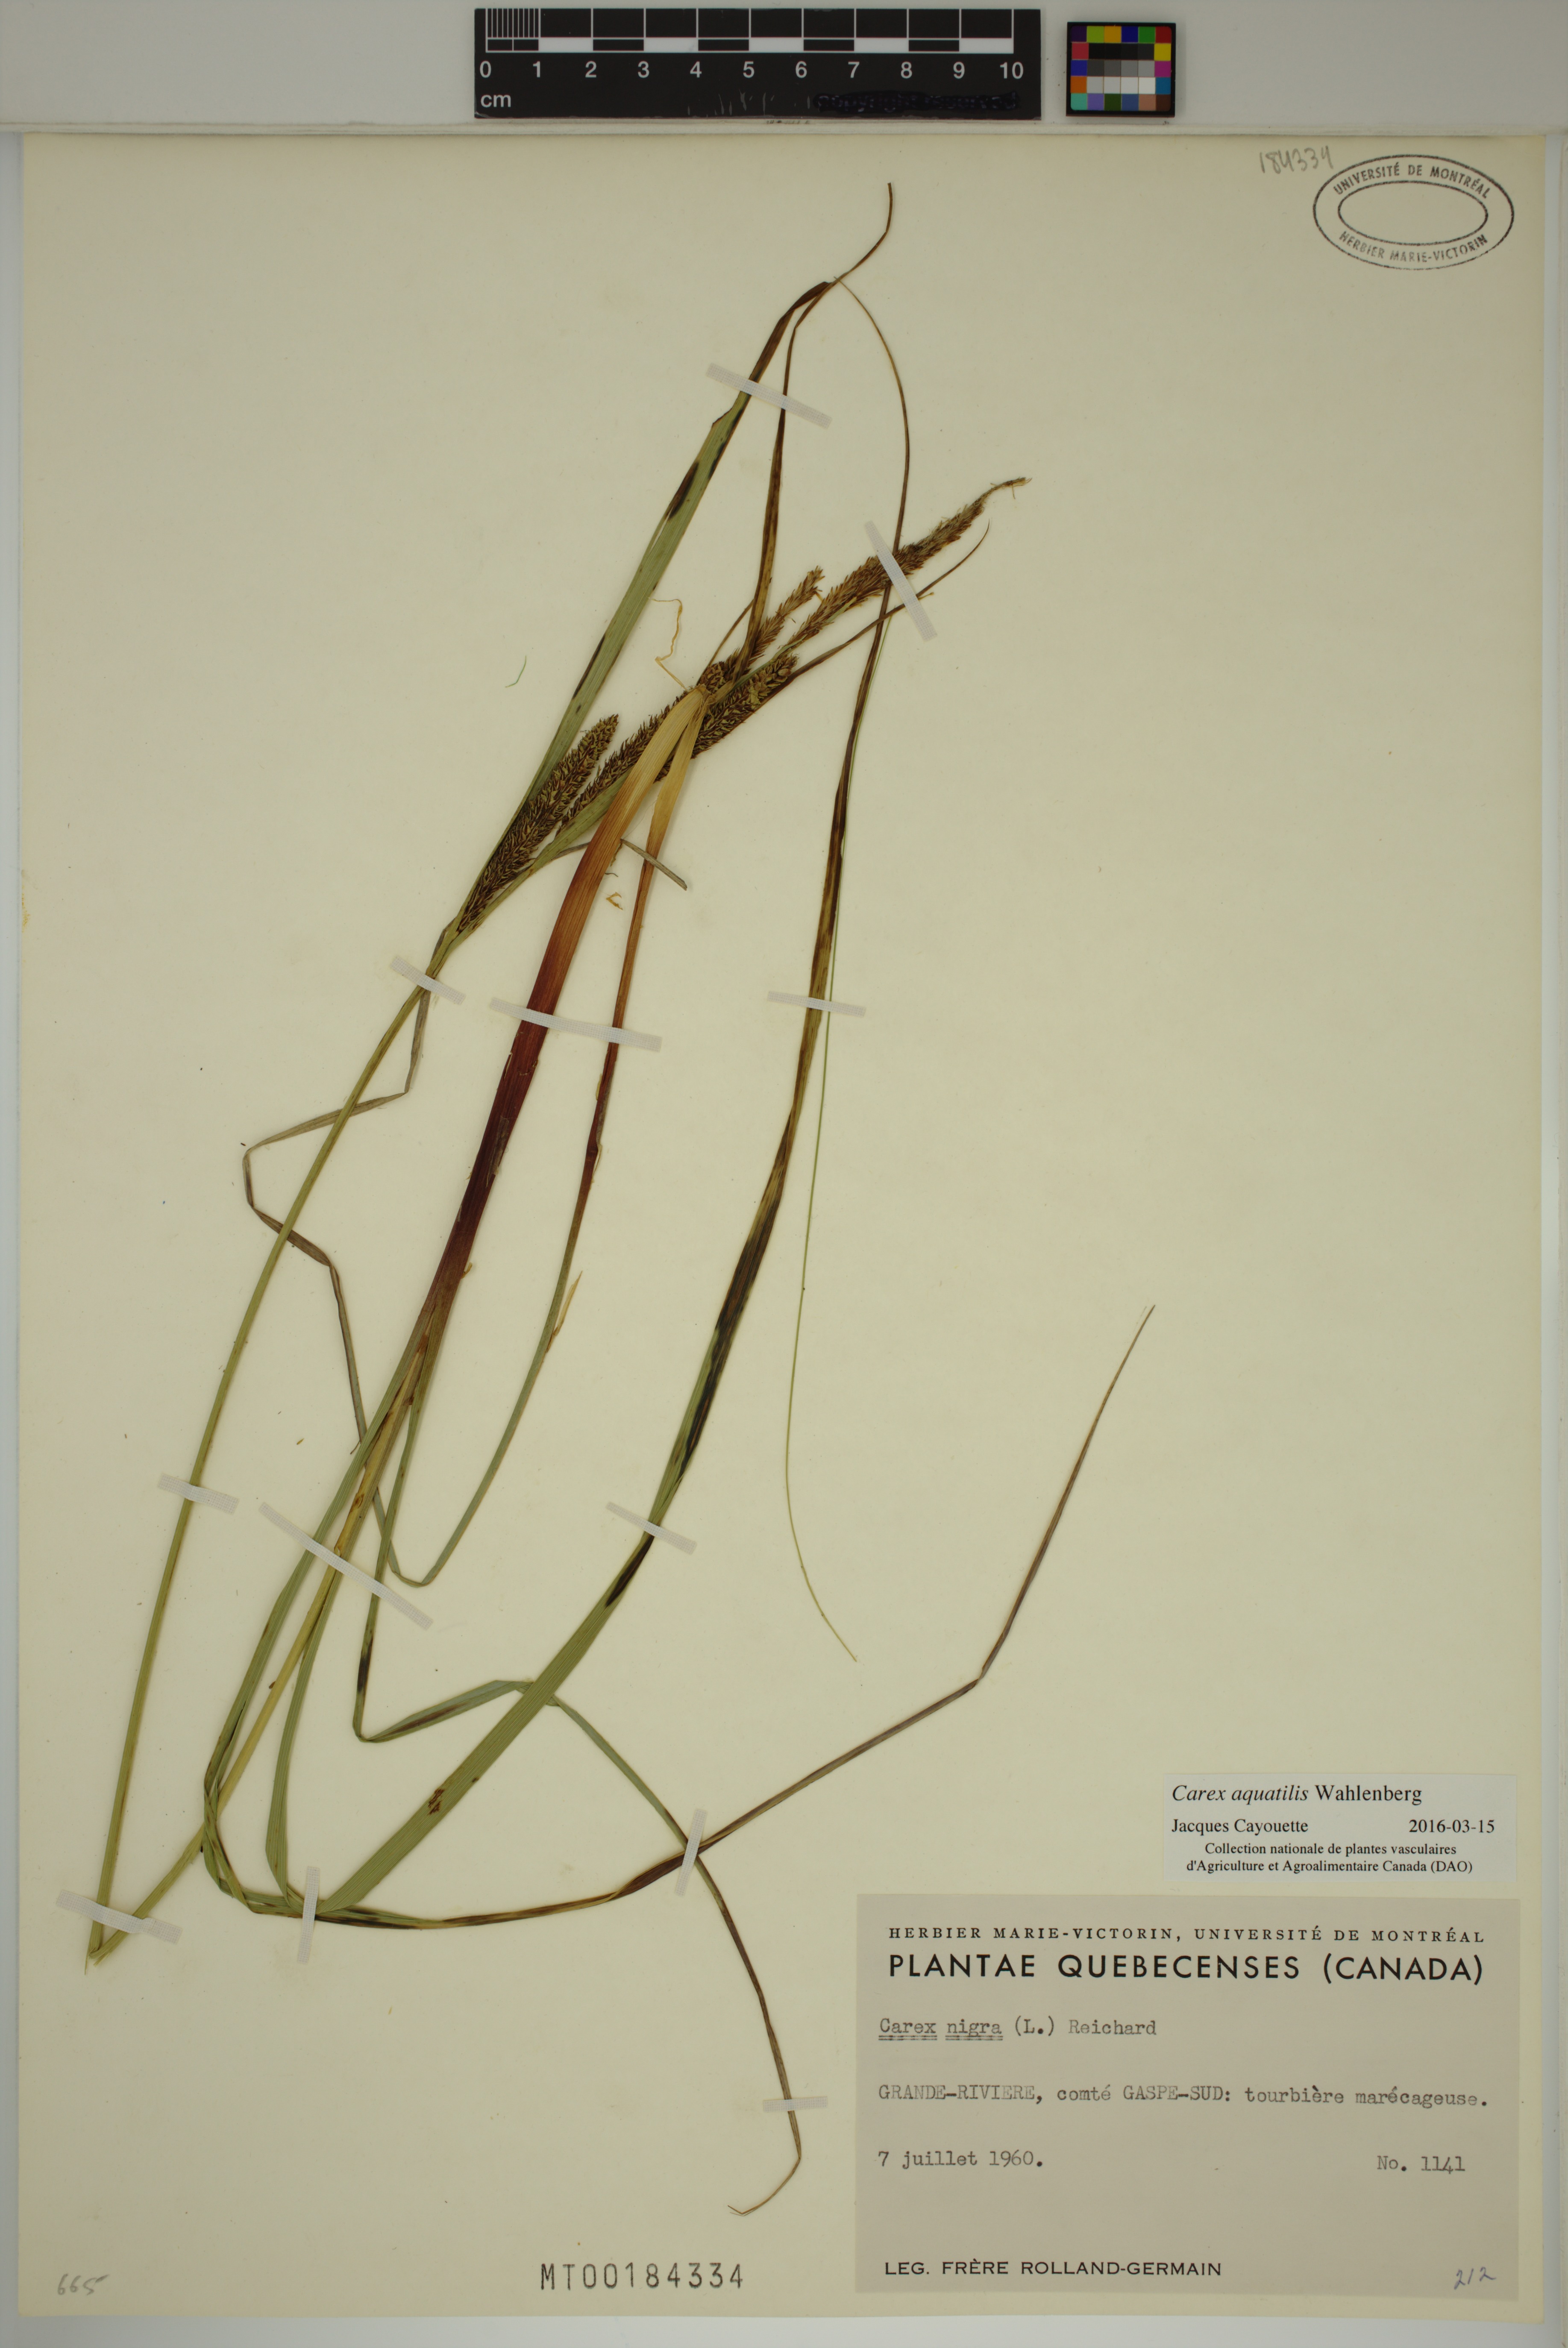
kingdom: Plantae
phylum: Tracheophyta
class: Liliopsida
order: Poales
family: Cyperaceae
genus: Carex
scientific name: Carex aquatilis
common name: Water sedge
